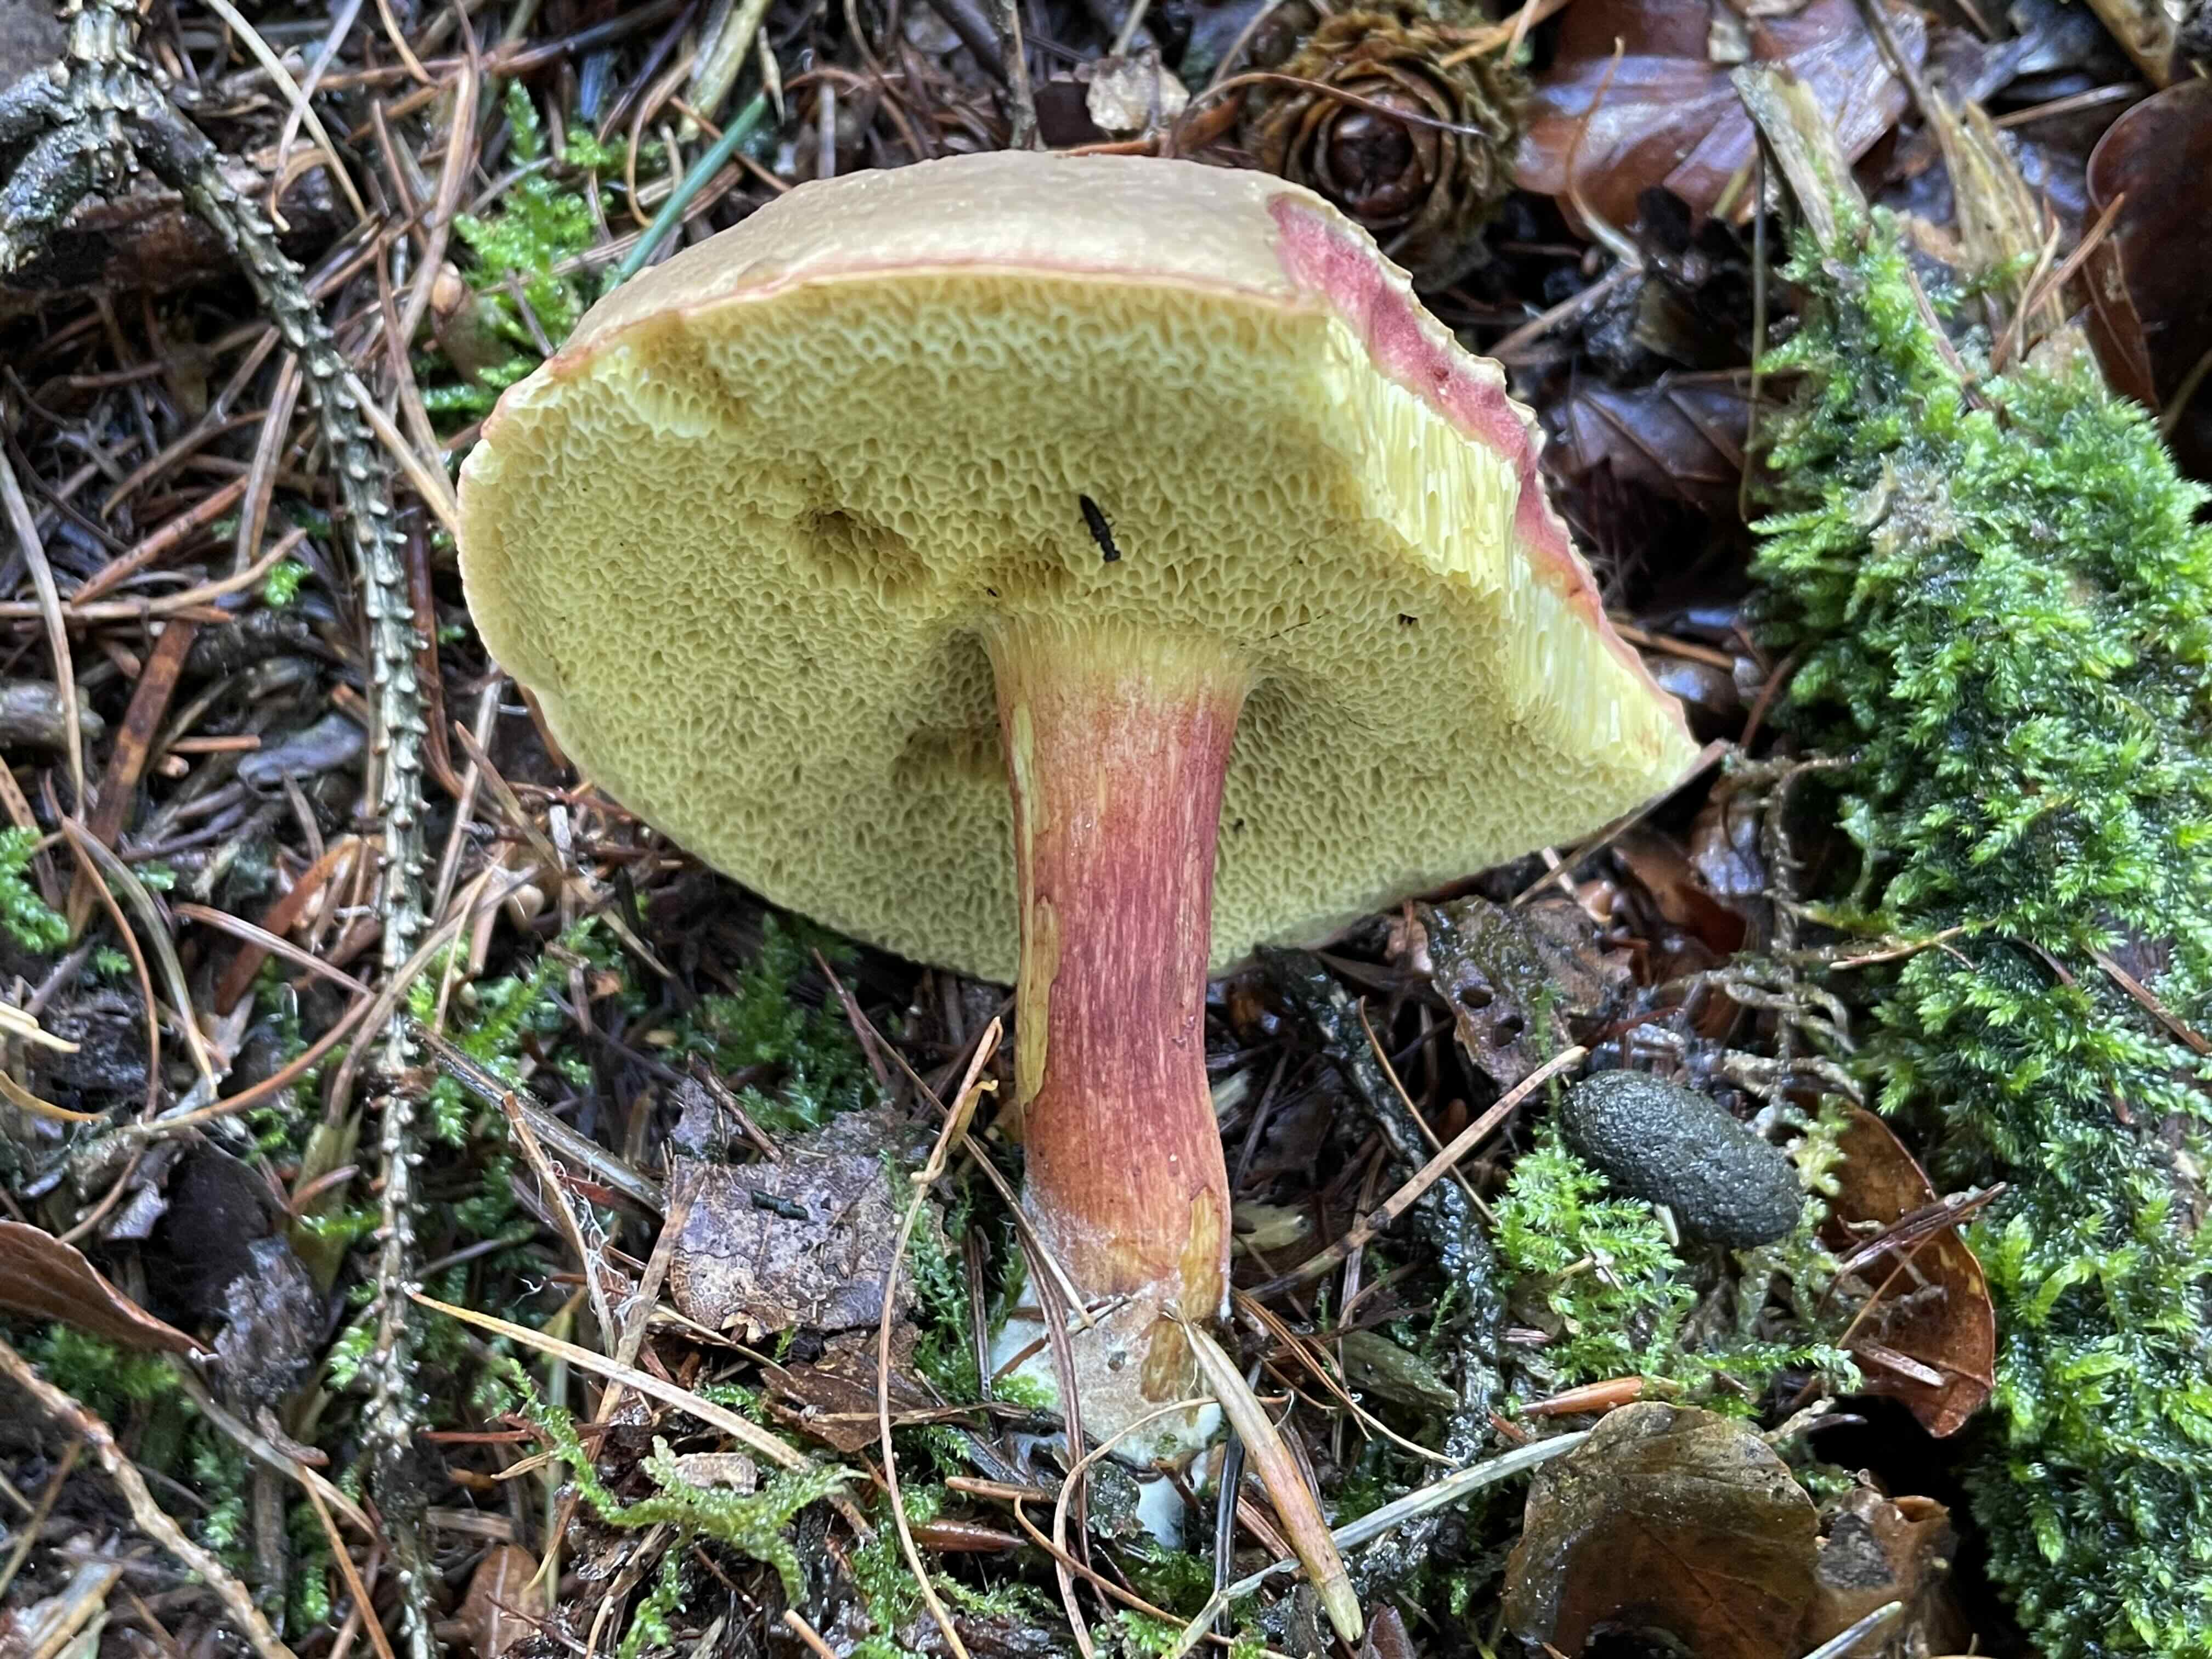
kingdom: Fungi
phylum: Basidiomycota
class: Agaricomycetes
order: Boletales
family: Boletaceae
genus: Xerocomellus
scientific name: Xerocomellus pruinatus
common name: dugget rørhat
